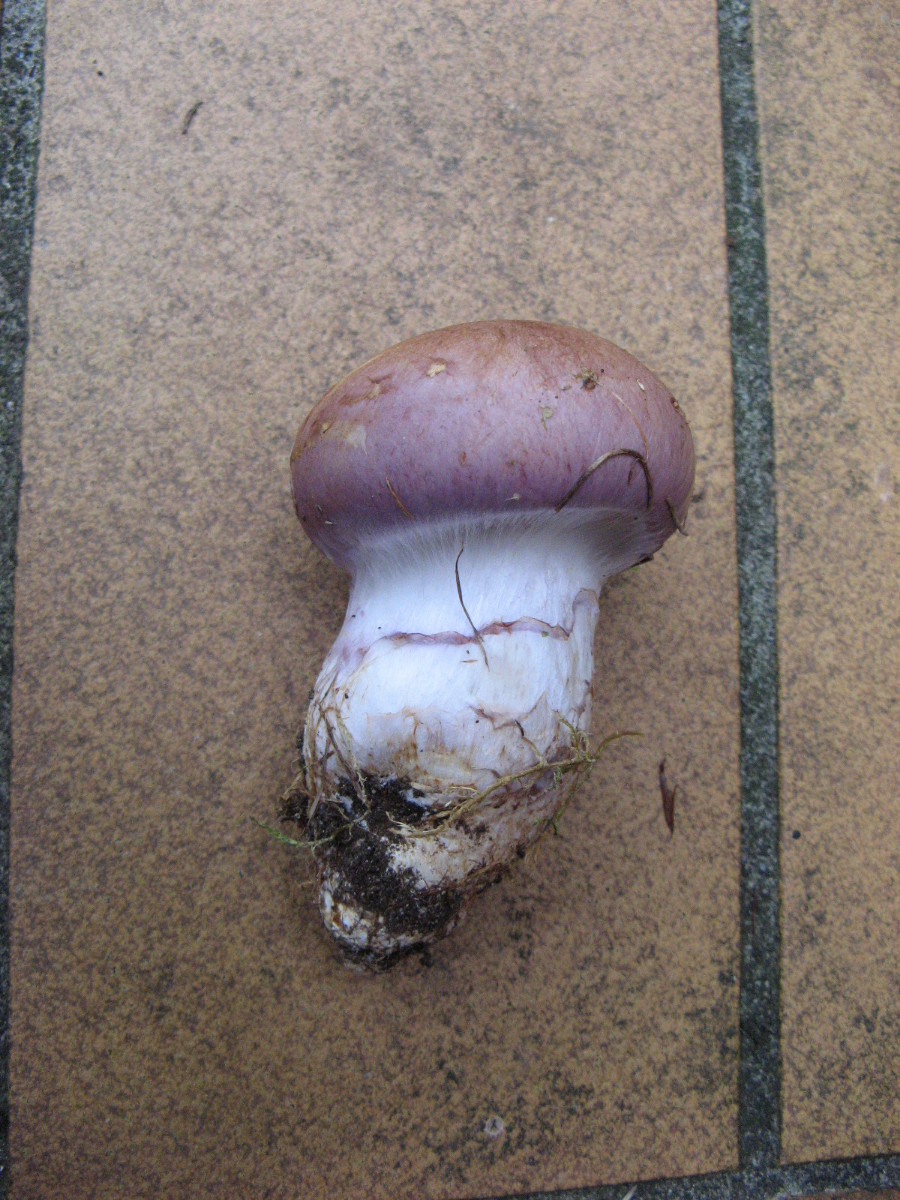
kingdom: Fungi
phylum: Basidiomycota
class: Agaricomycetes
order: Agaricales
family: Cortinariaceae
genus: Phlegmacium
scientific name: Phlegmacium balteatocumatile
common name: violettrådet slørhat
